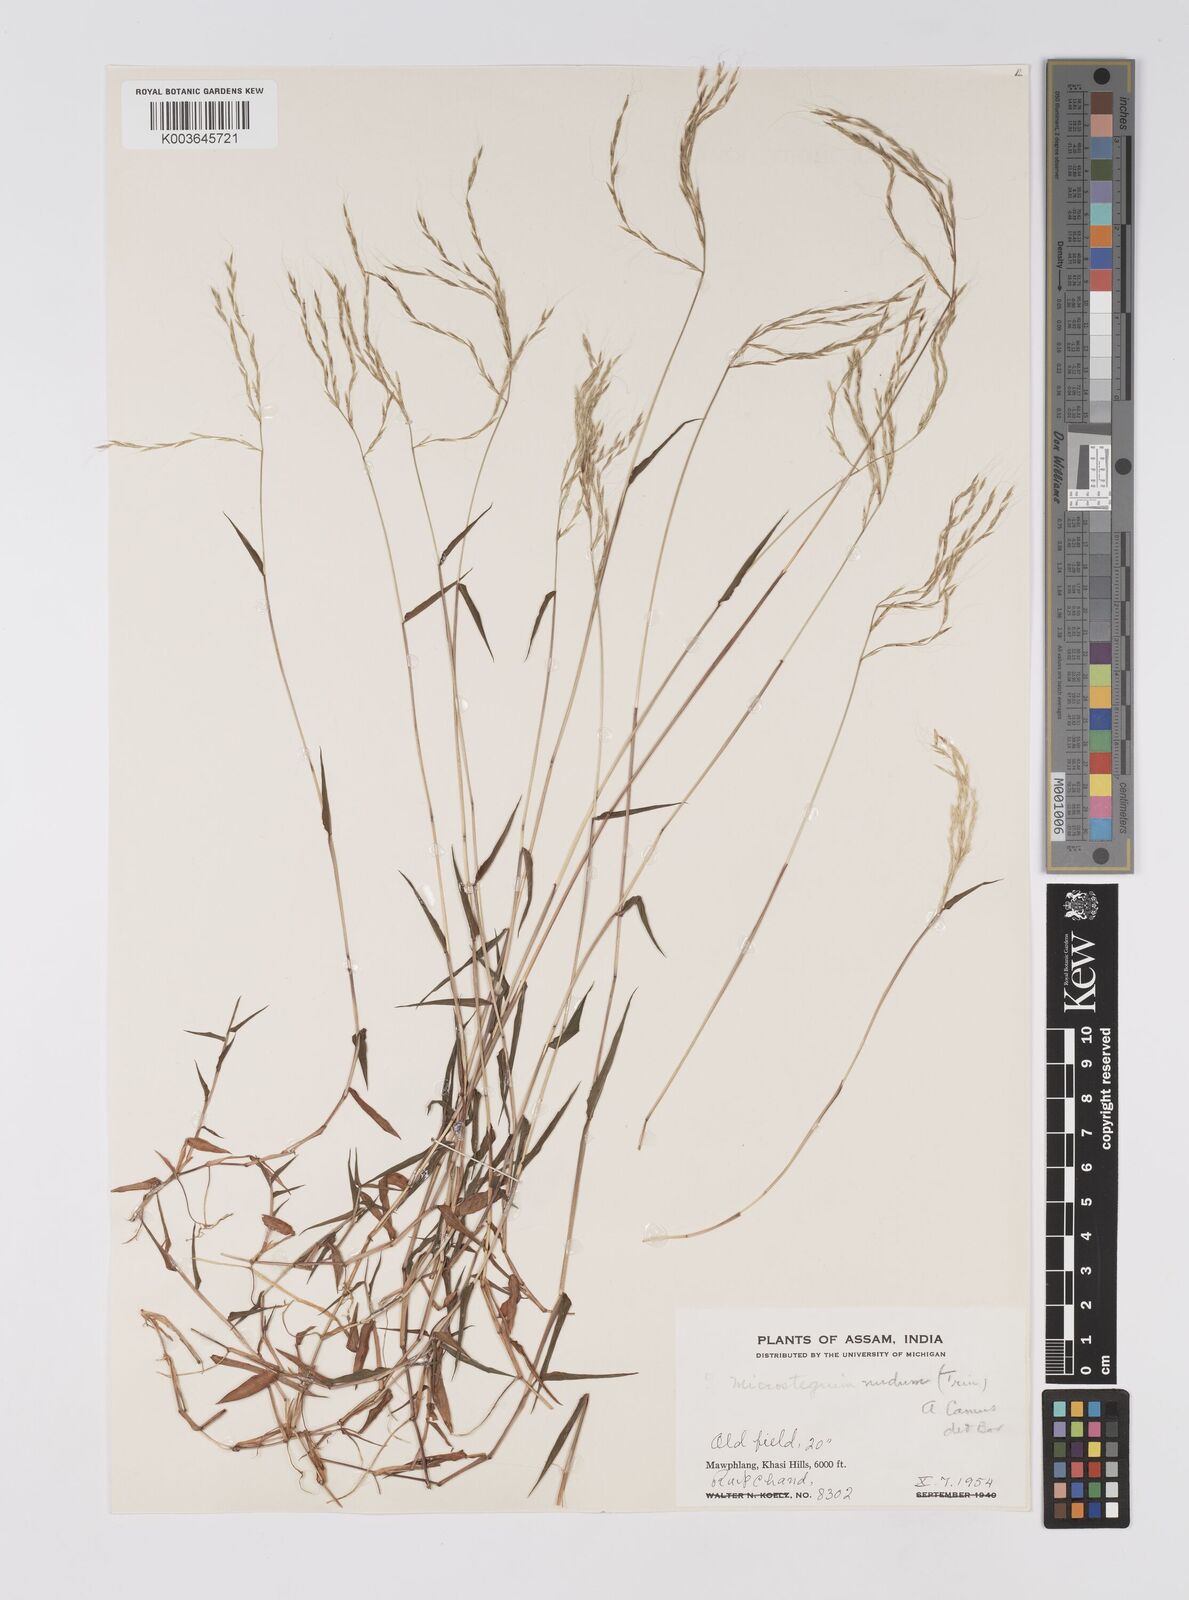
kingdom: Plantae
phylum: Tracheophyta
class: Liliopsida
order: Poales
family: Poaceae
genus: Microstegium
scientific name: Microstegium nudum
